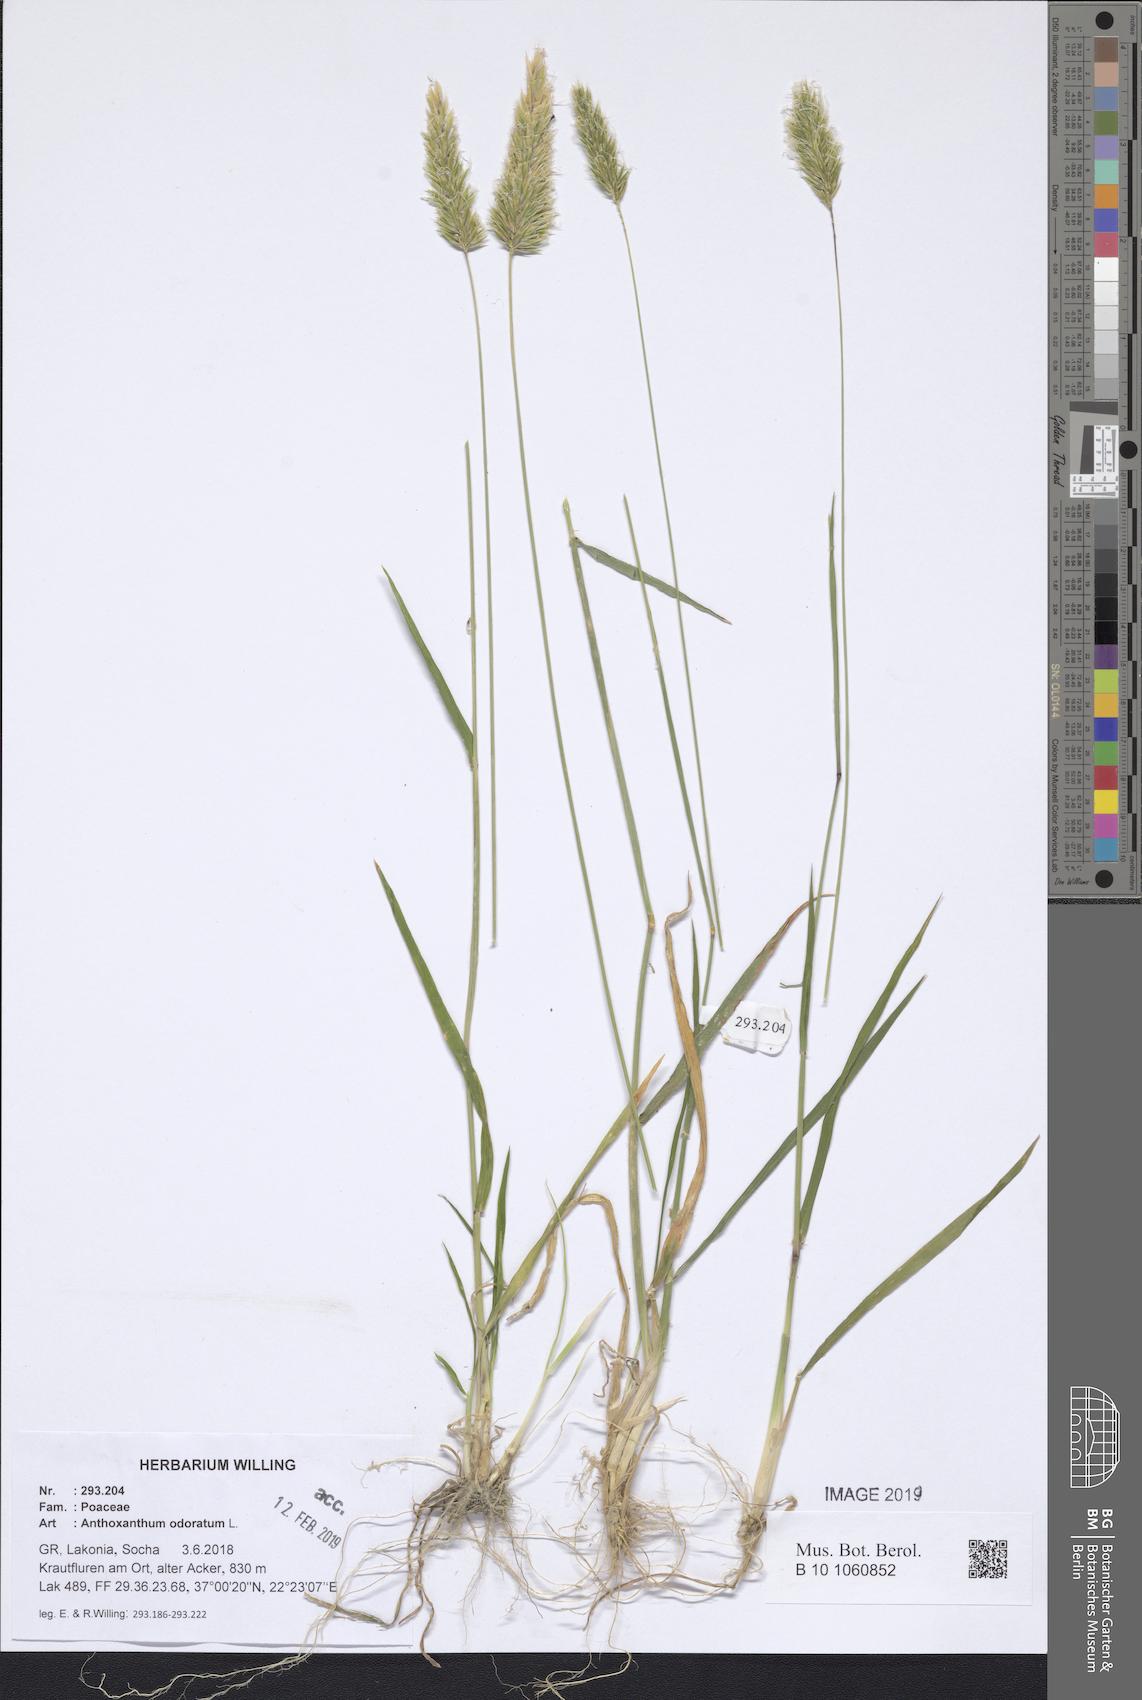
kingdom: Plantae
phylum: Tracheophyta
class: Liliopsida
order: Poales
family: Poaceae
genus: Anthoxanthum
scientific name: Anthoxanthum odoratum
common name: Sweet vernalgrass
